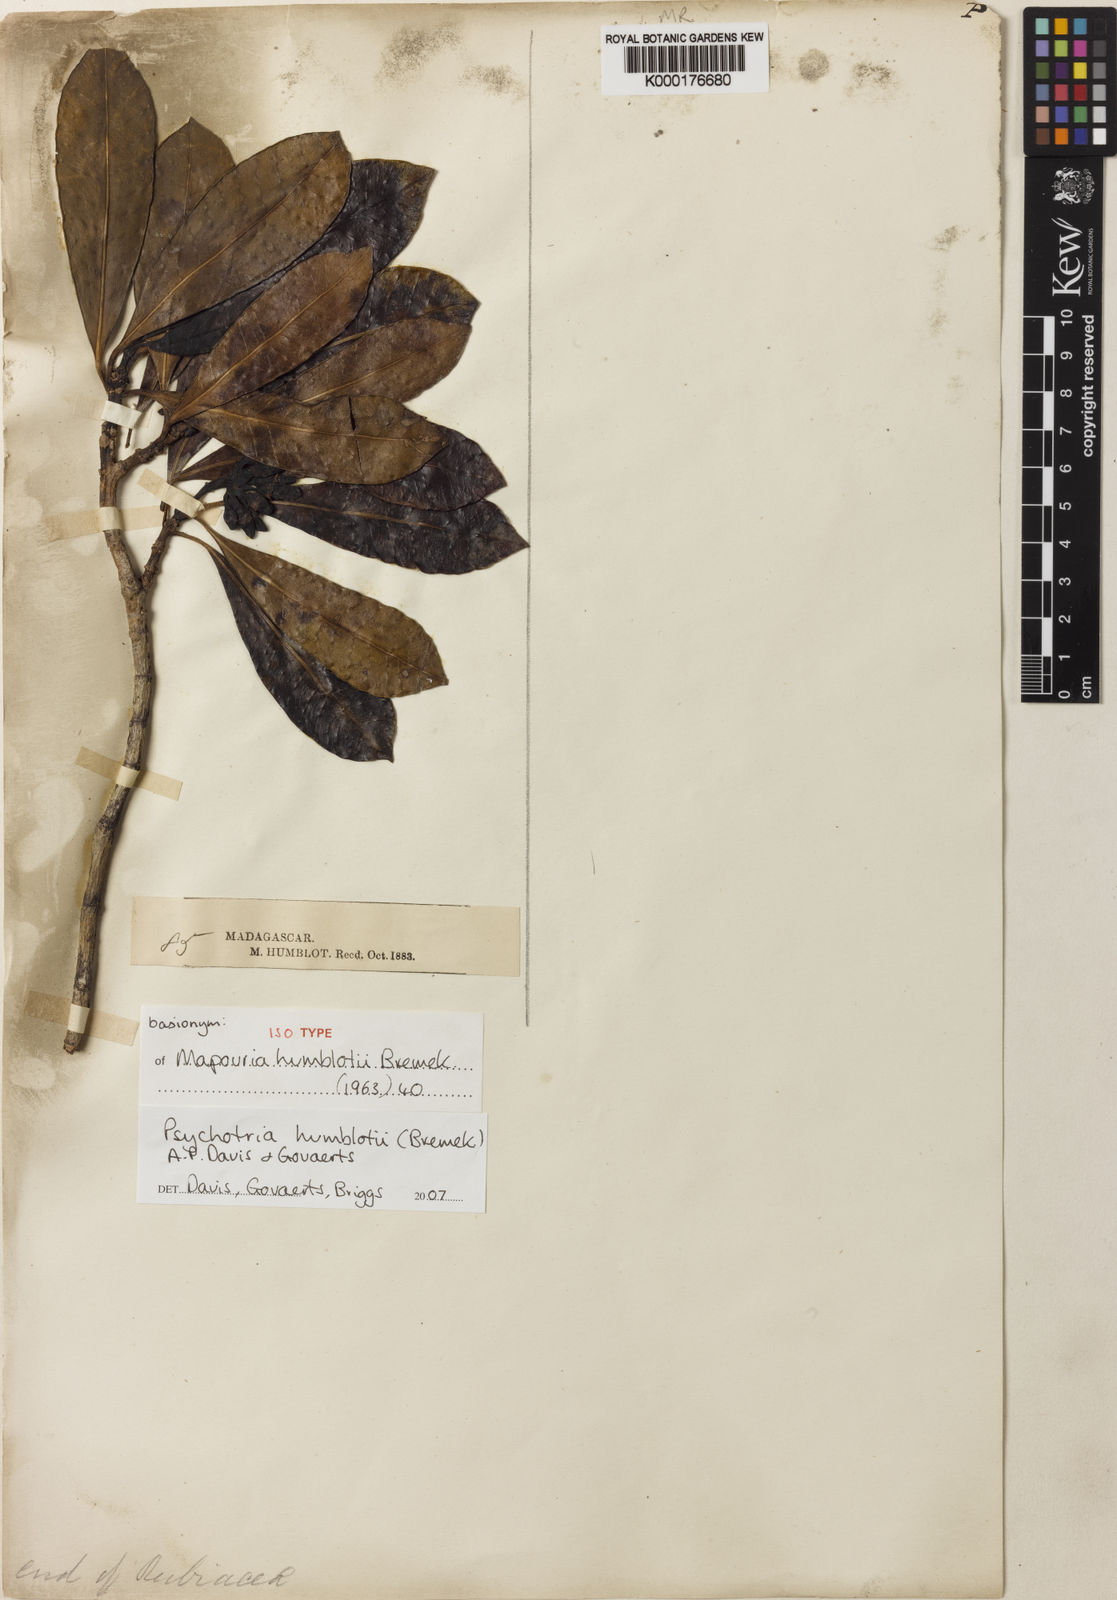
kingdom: Plantae
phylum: Tracheophyta
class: Magnoliopsida
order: Gentianales
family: Rubiaceae
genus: Psychotria
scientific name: Psychotria humblotii
